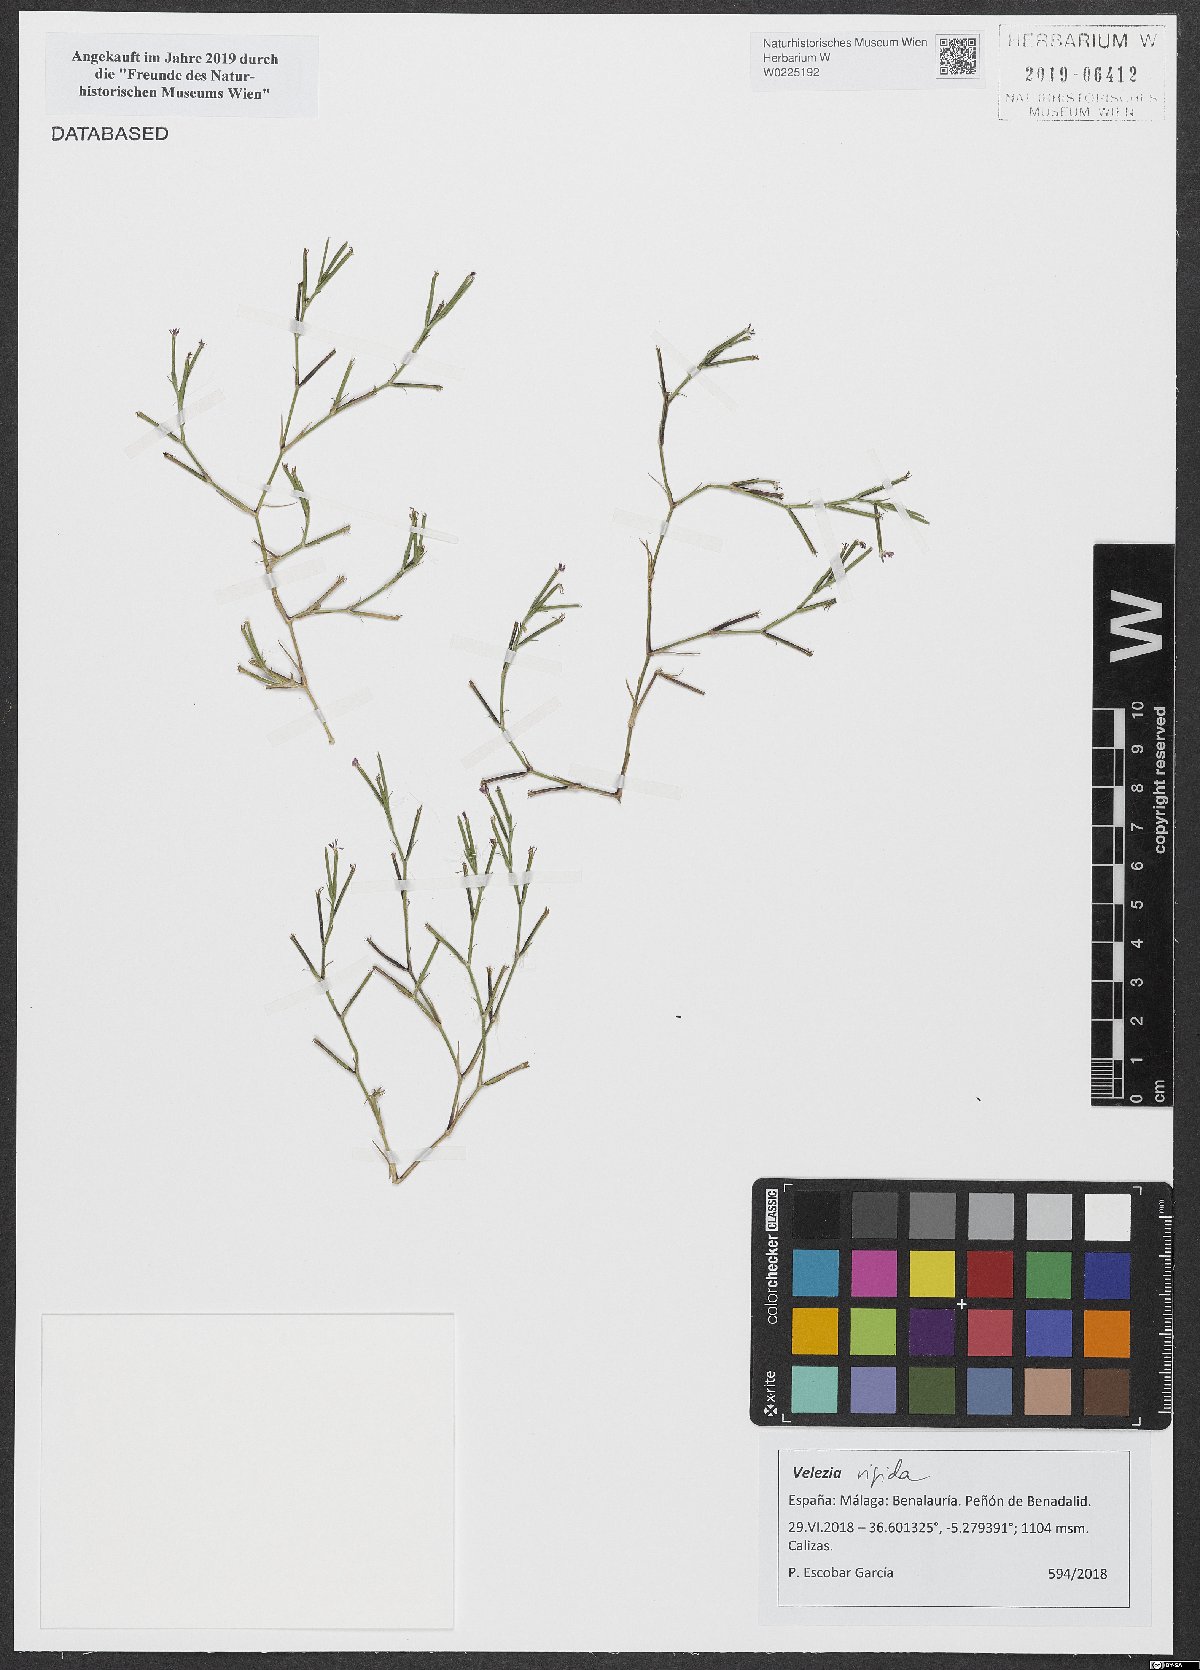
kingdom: Plantae
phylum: Tracheophyta
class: Magnoliopsida
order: Caryophyllales
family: Caryophyllaceae
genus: Dianthus
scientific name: Dianthus nudiflorus
